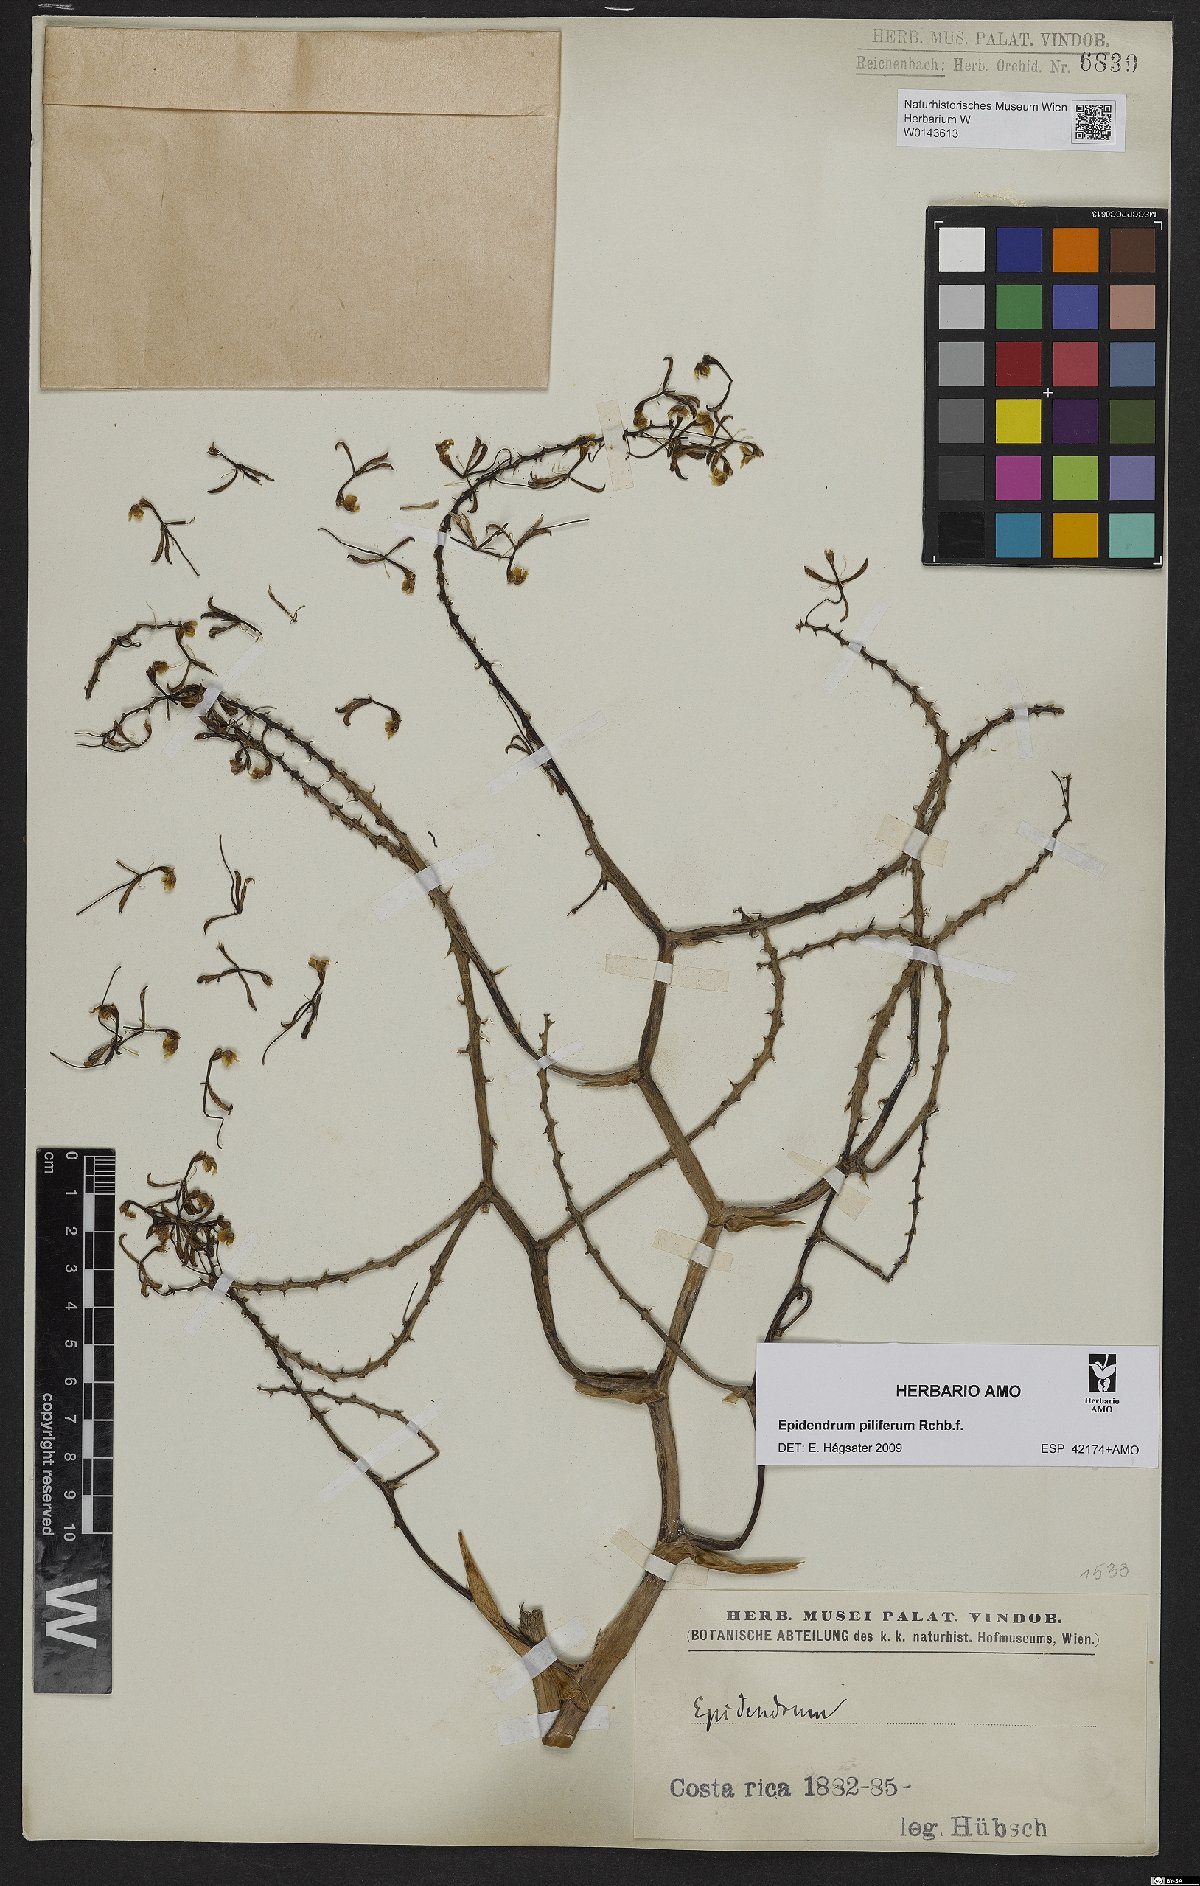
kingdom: Plantae
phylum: Tracheophyta
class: Liliopsida
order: Asparagales
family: Orchidaceae
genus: Epidendrum
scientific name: Epidendrum piliferum
